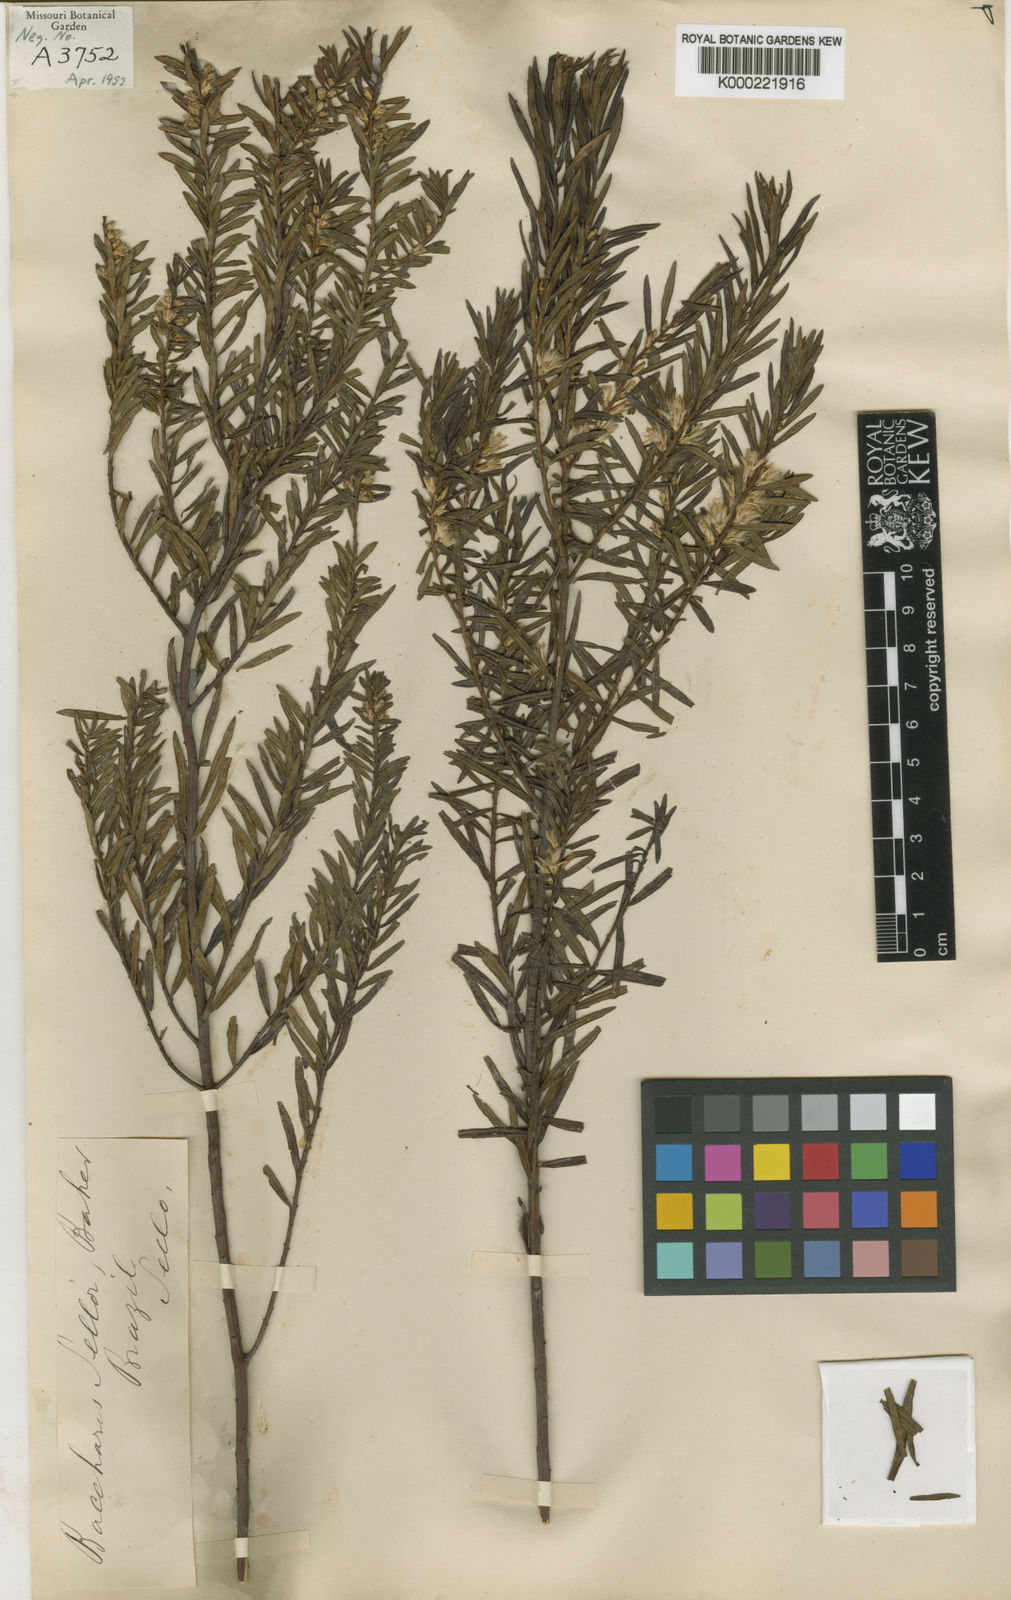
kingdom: Plantae
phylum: Tracheophyta
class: Magnoliopsida
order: Asterales
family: Asteraceae
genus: Baccharis
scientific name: Baccharis selloi
